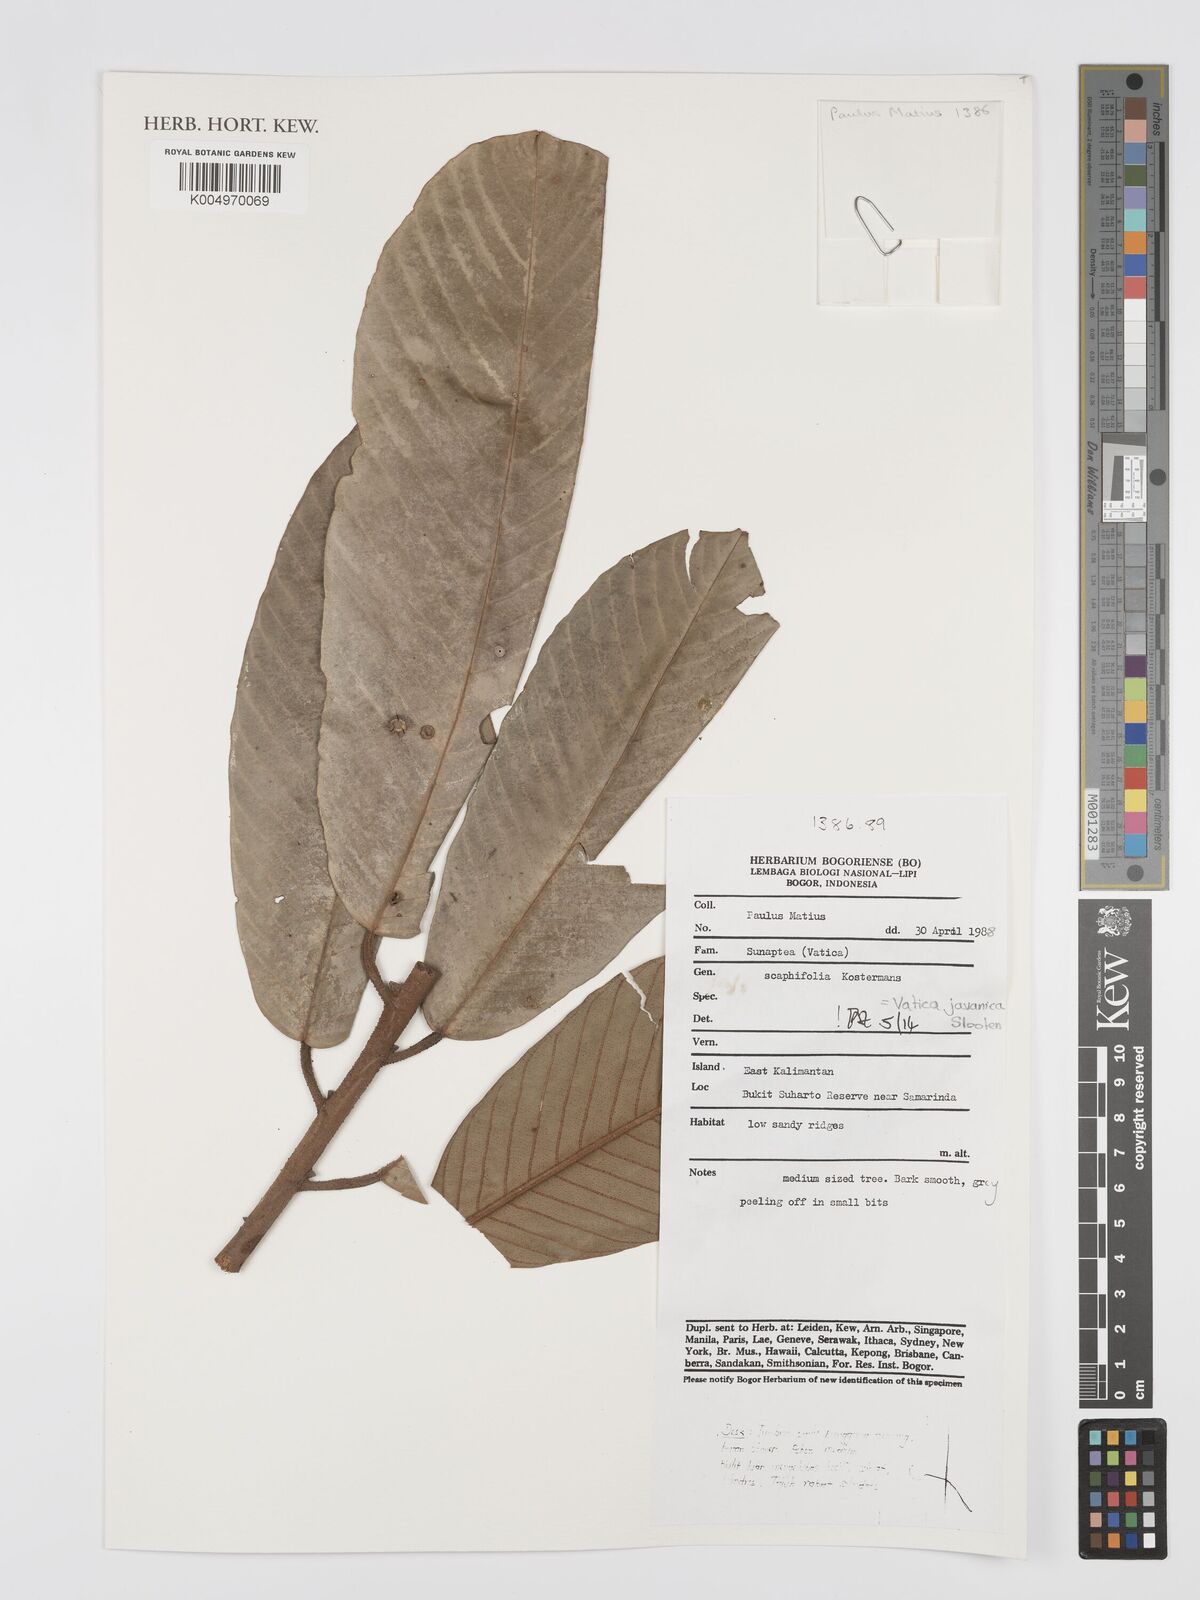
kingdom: Plantae
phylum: Tracheophyta
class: Magnoliopsida
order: Malvales
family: Dipterocarpaceae
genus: Vatica
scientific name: Vatica javanica
